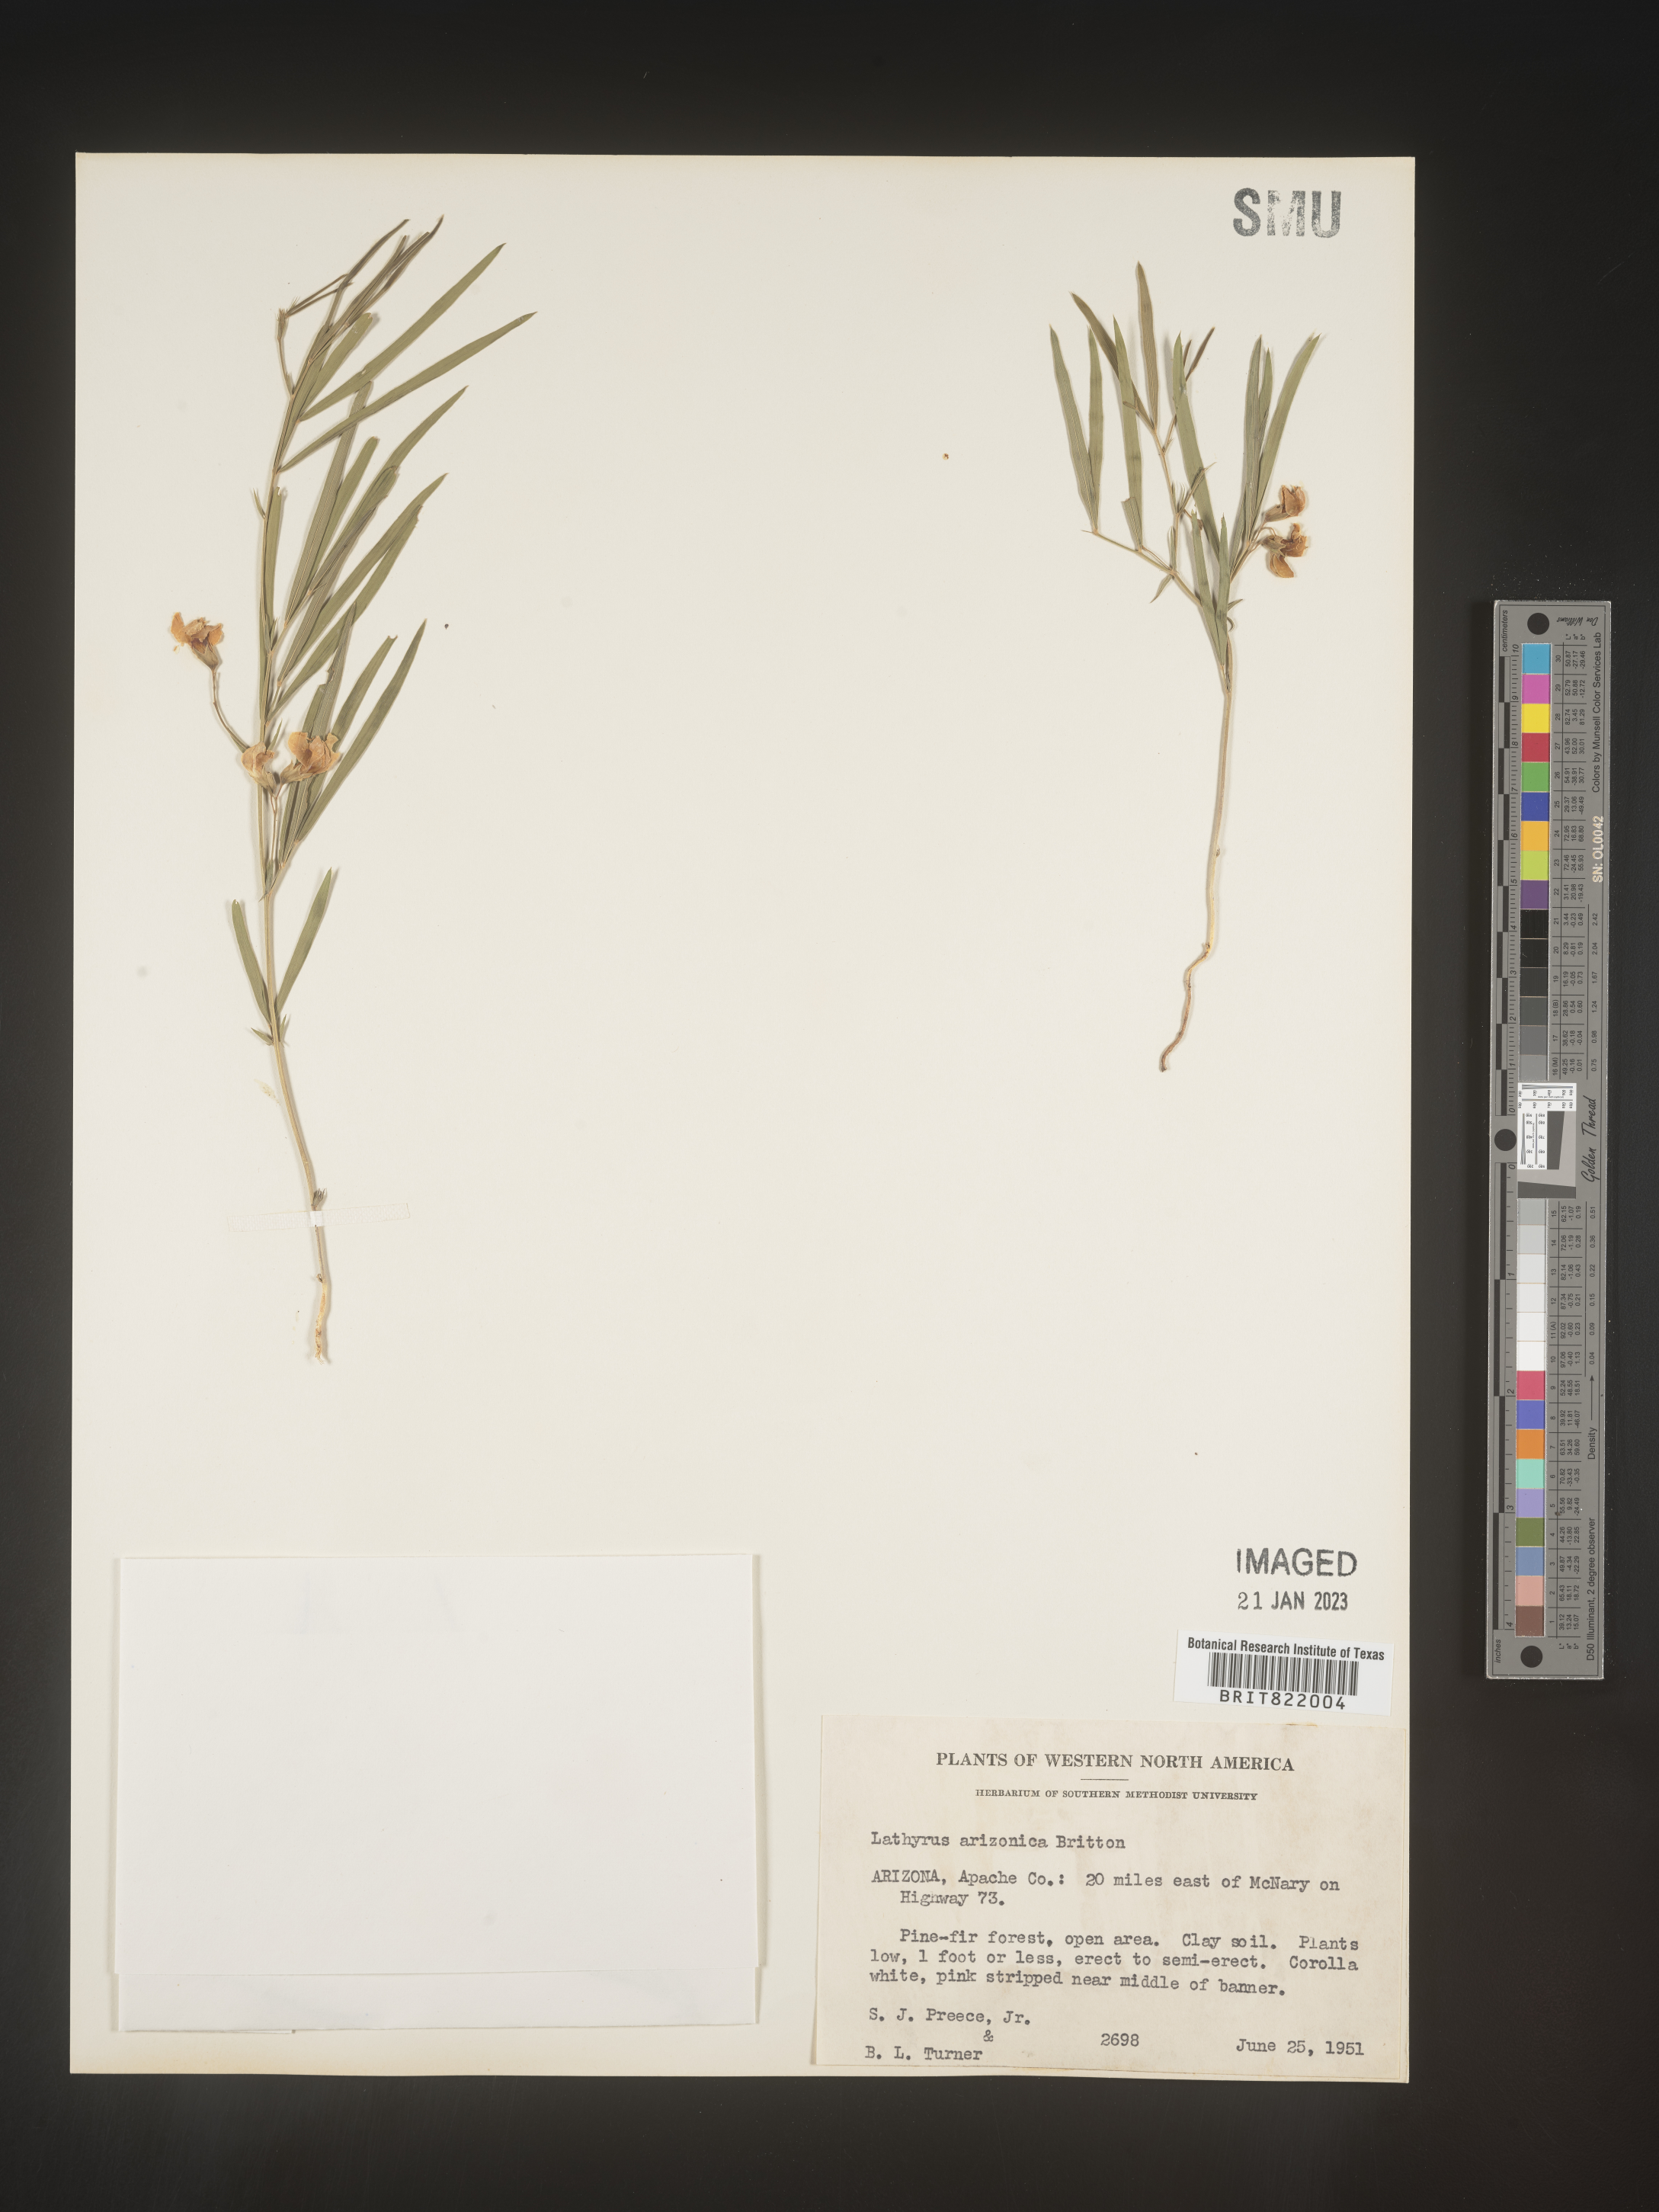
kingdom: Plantae
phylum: Tracheophyta
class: Magnoliopsida
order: Fabales
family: Fabaceae
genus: Lathyrus
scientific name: Lathyrus
